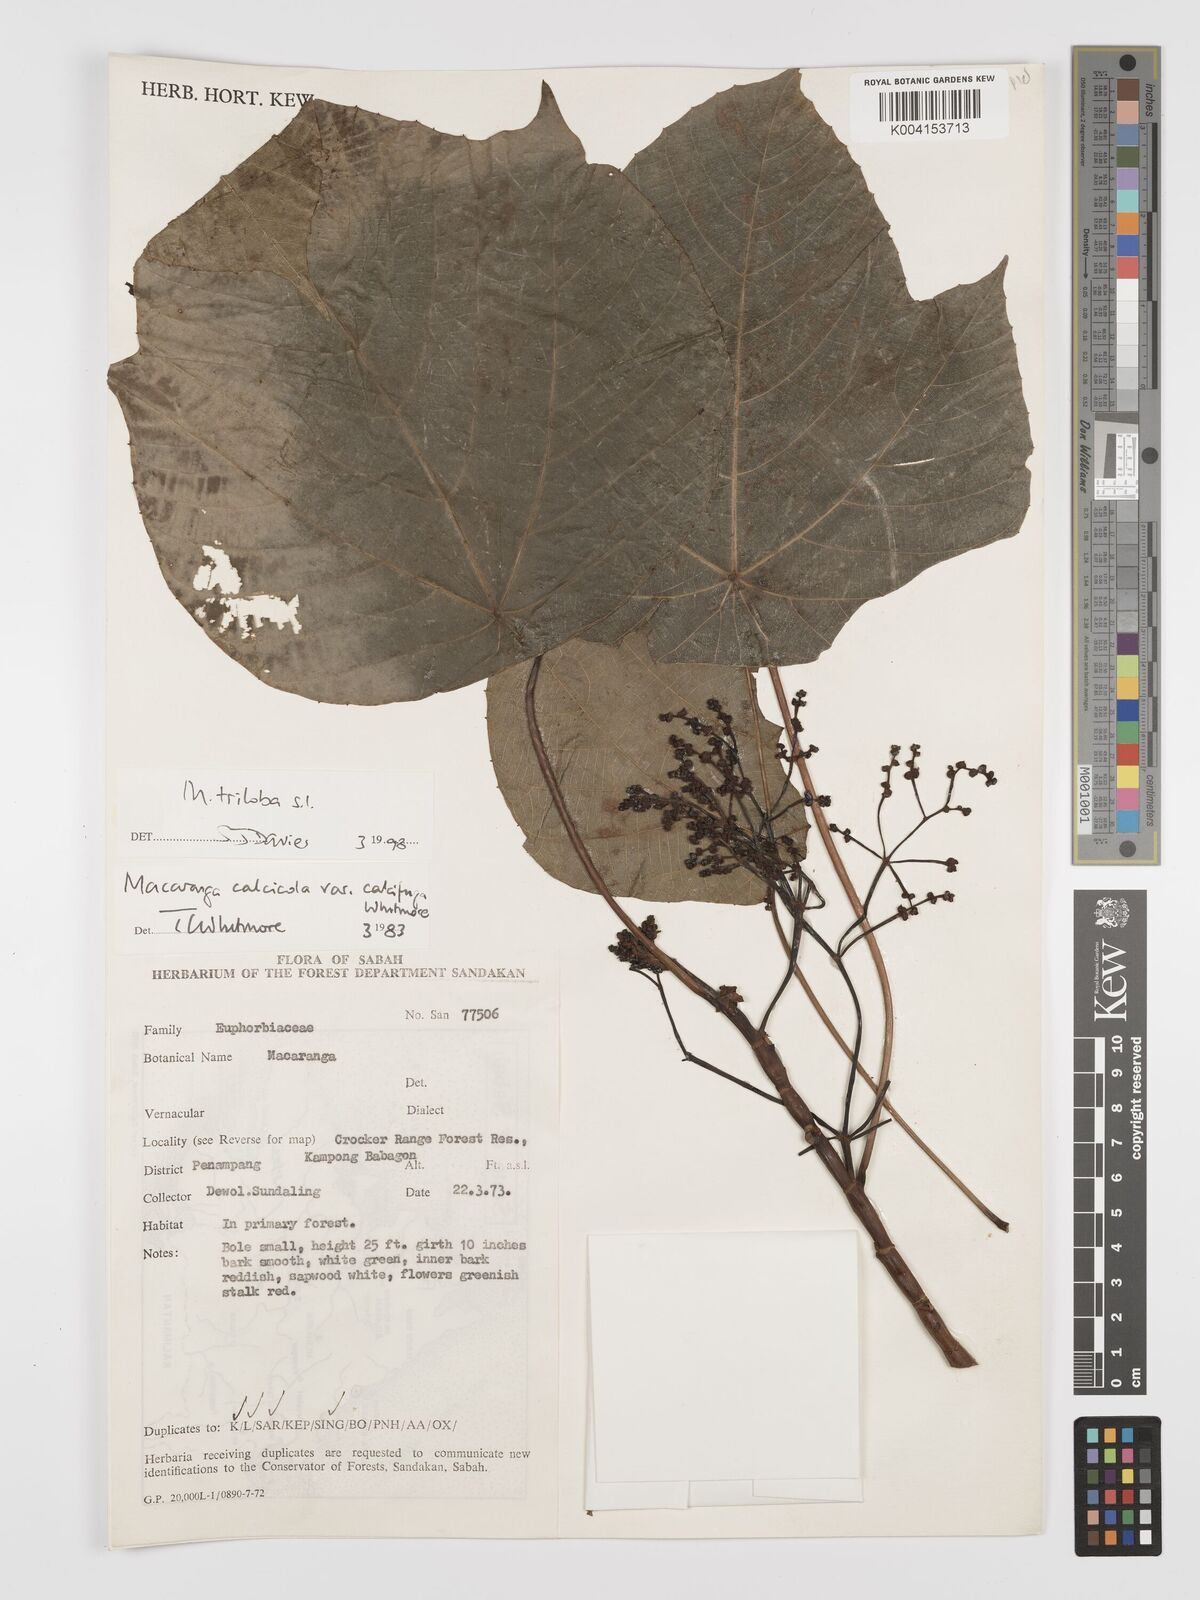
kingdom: Plantae
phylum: Tracheophyta
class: Magnoliopsida
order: Malpighiales
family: Euphorbiaceae
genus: Macaranga
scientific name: Macaranga triloba
